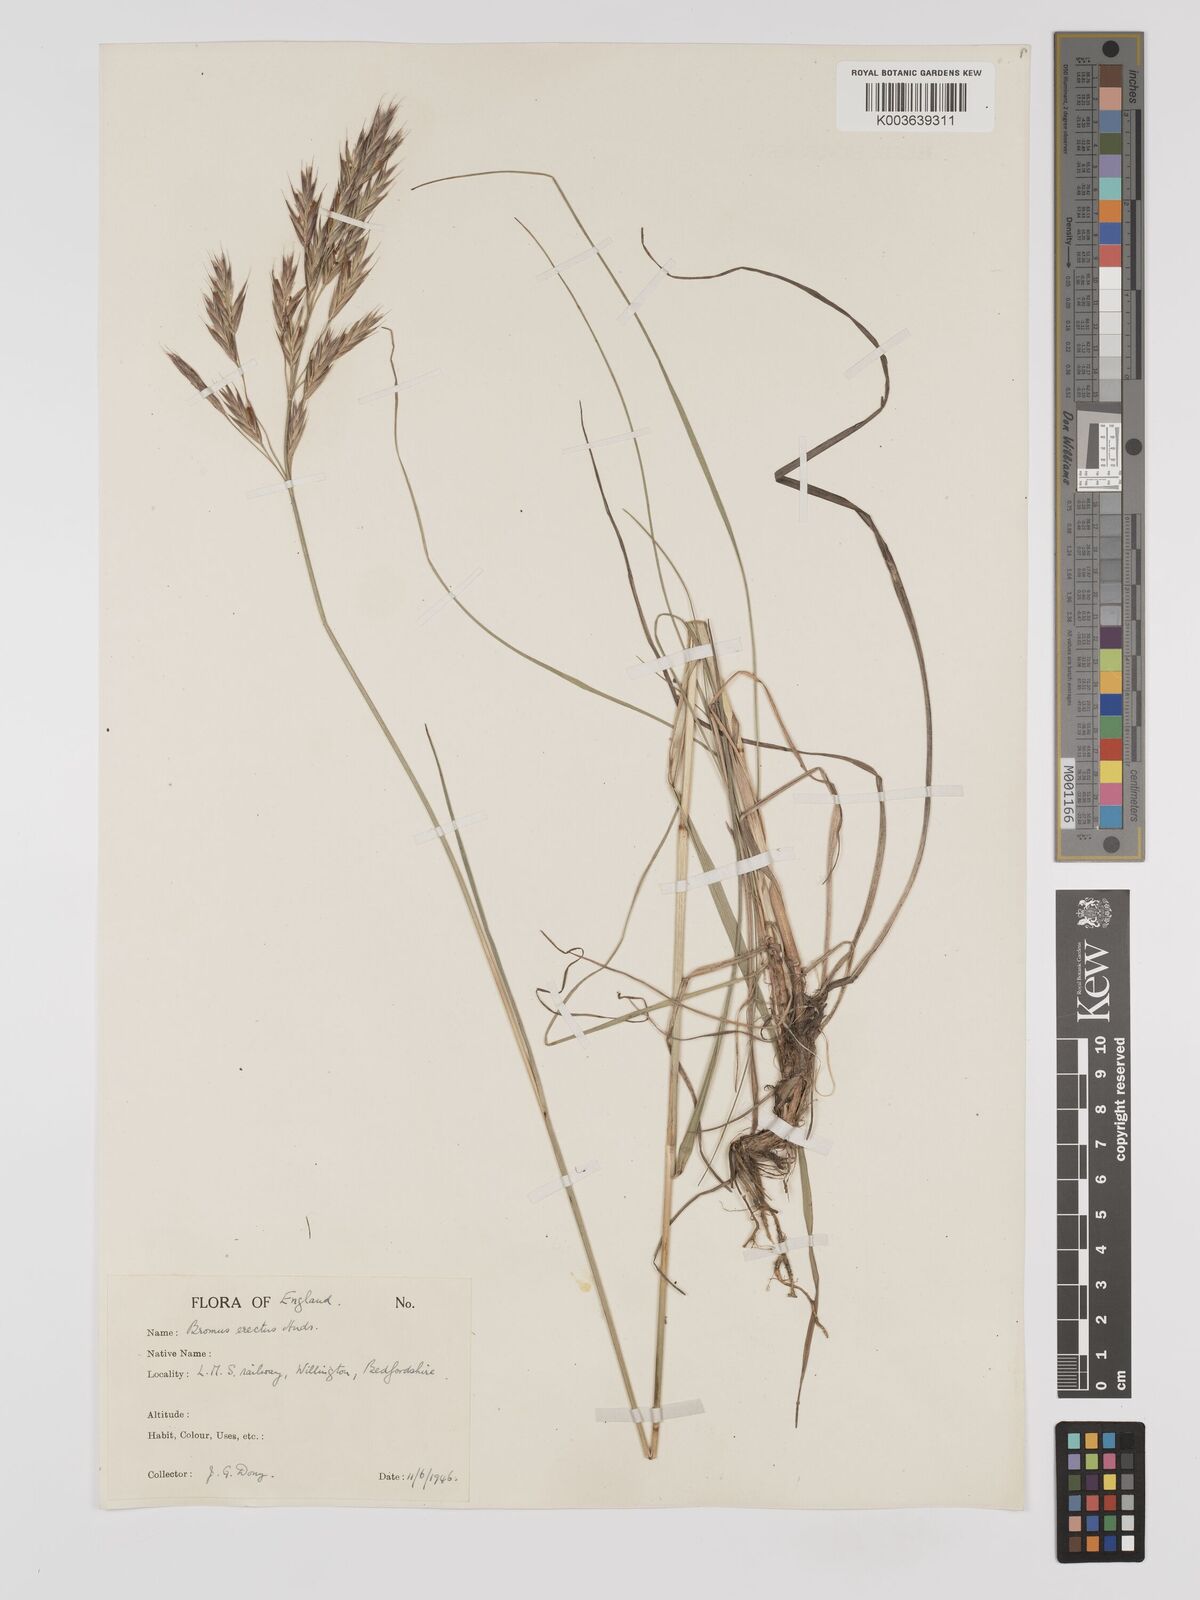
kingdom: Plantae
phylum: Tracheophyta
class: Liliopsida
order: Poales
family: Poaceae
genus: Bromus
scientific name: Bromus erectus
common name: Erect brome
